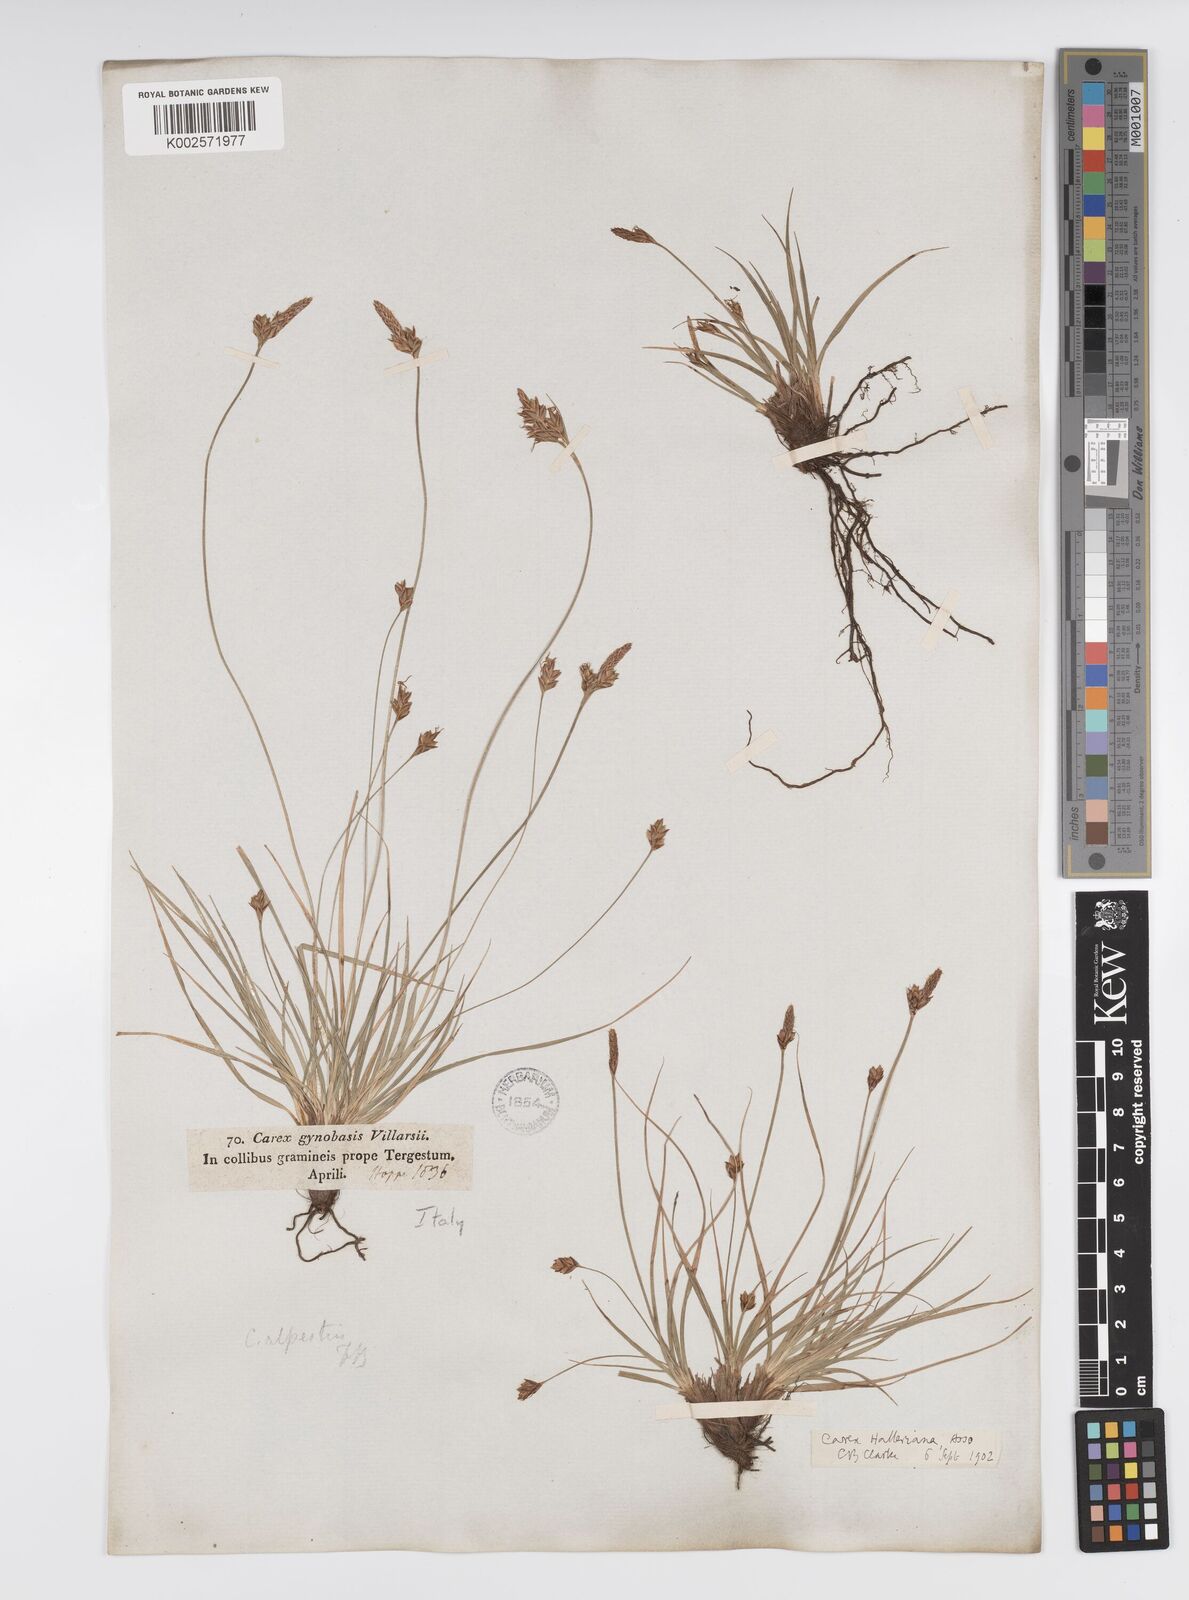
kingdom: Plantae
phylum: Tracheophyta
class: Liliopsida
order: Poales
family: Cyperaceae
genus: Carex
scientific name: Carex halleriana
